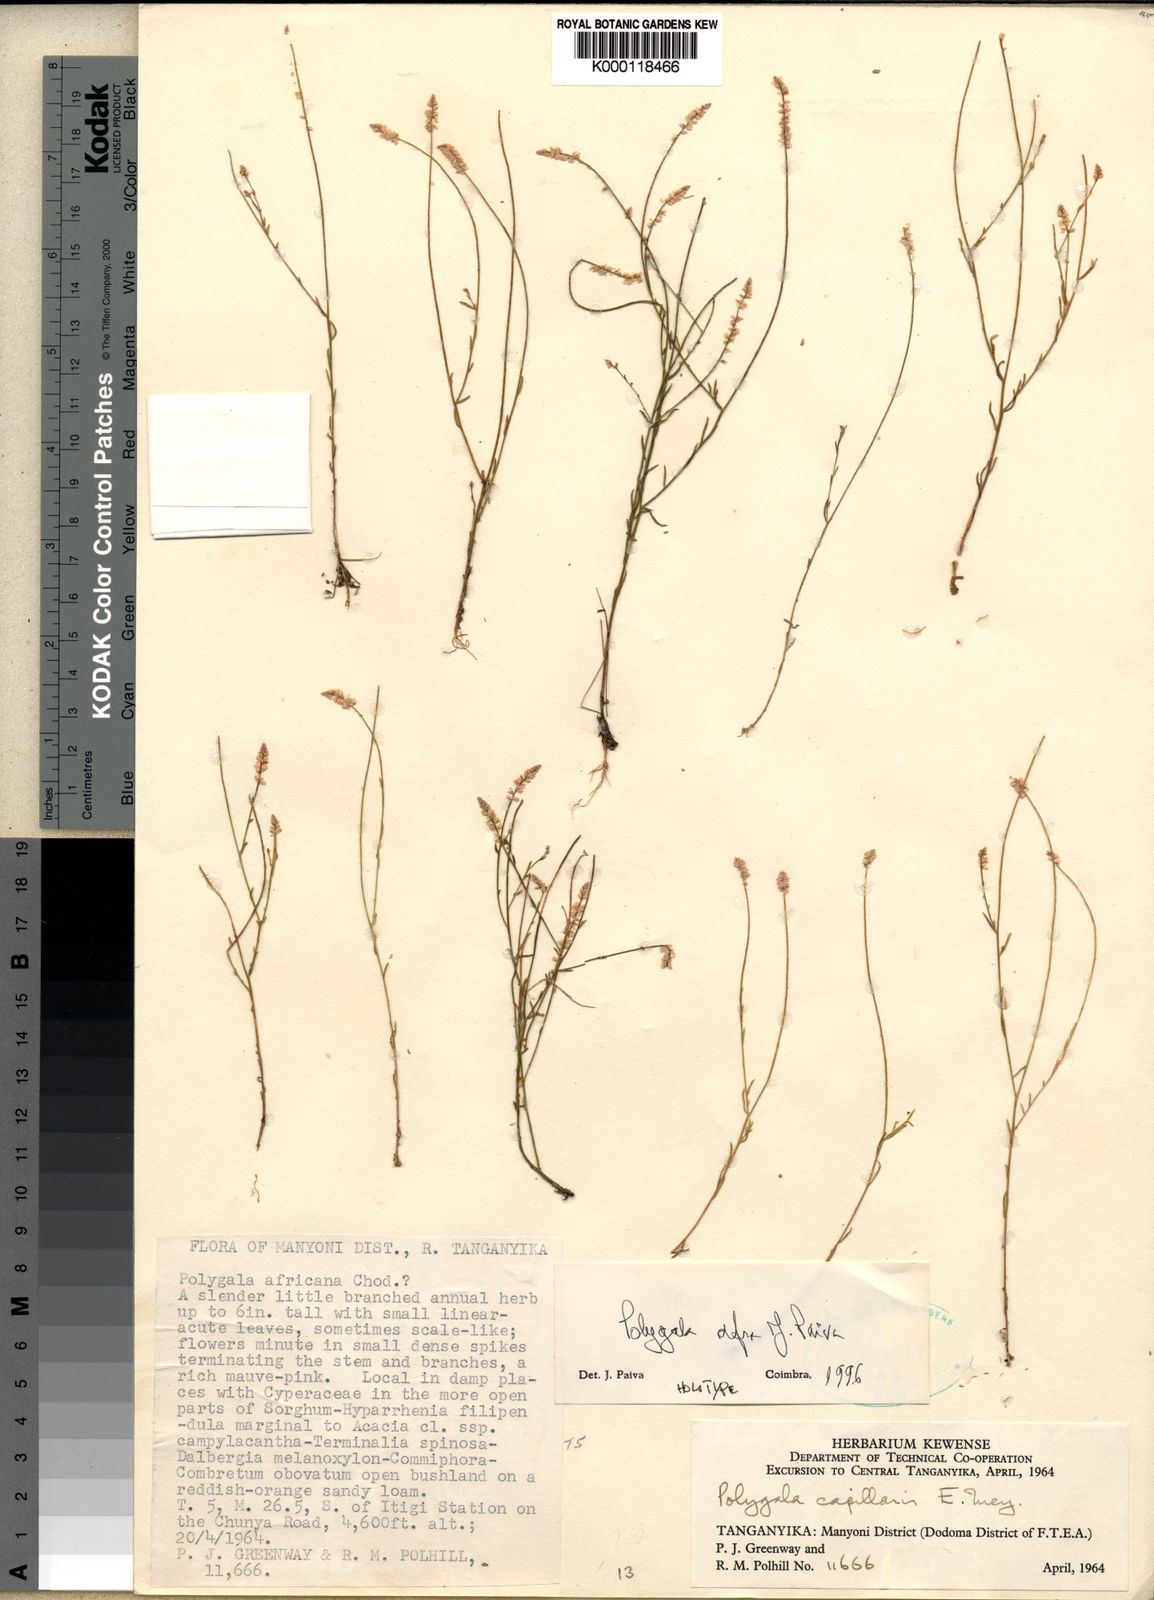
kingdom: Plantae
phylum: Tracheophyta
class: Magnoliopsida
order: Fabales
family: Polygalaceae
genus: Polygala
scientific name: Polygala afra
